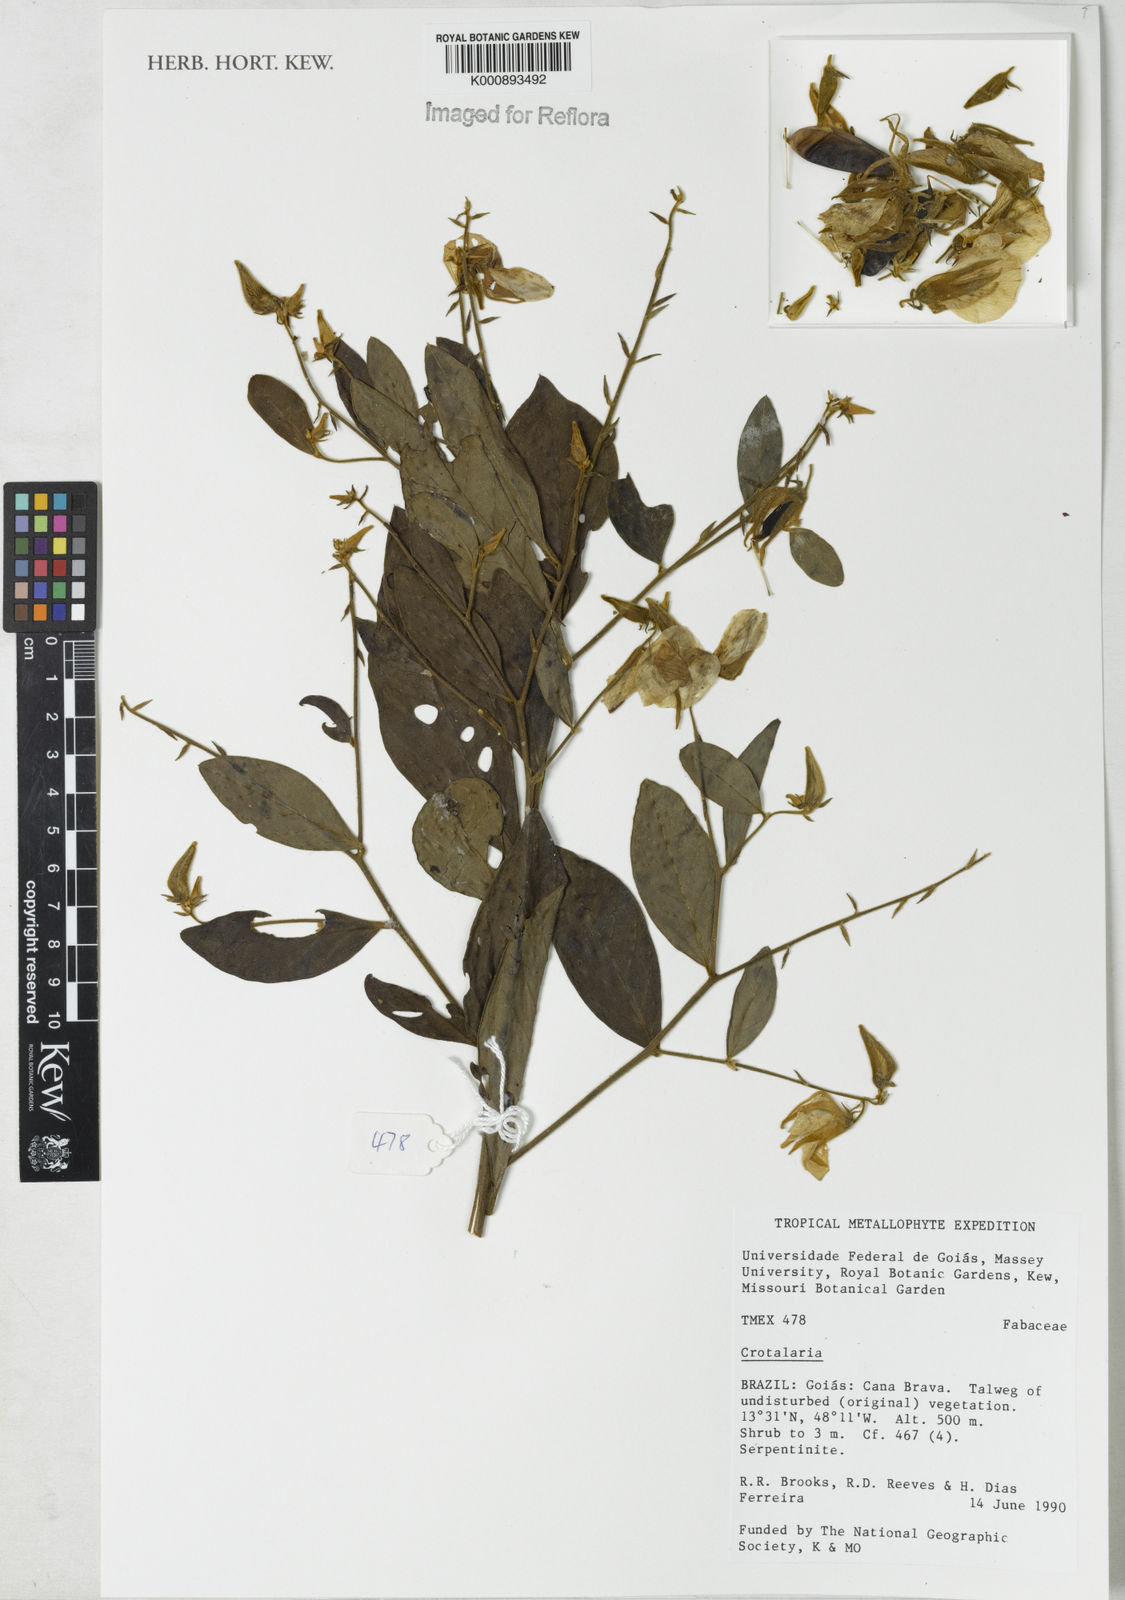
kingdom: Plantae
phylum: Tracheophyta
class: Magnoliopsida
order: Fabales
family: Fabaceae
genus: Crotalaria
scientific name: Crotalaria grandiflora
